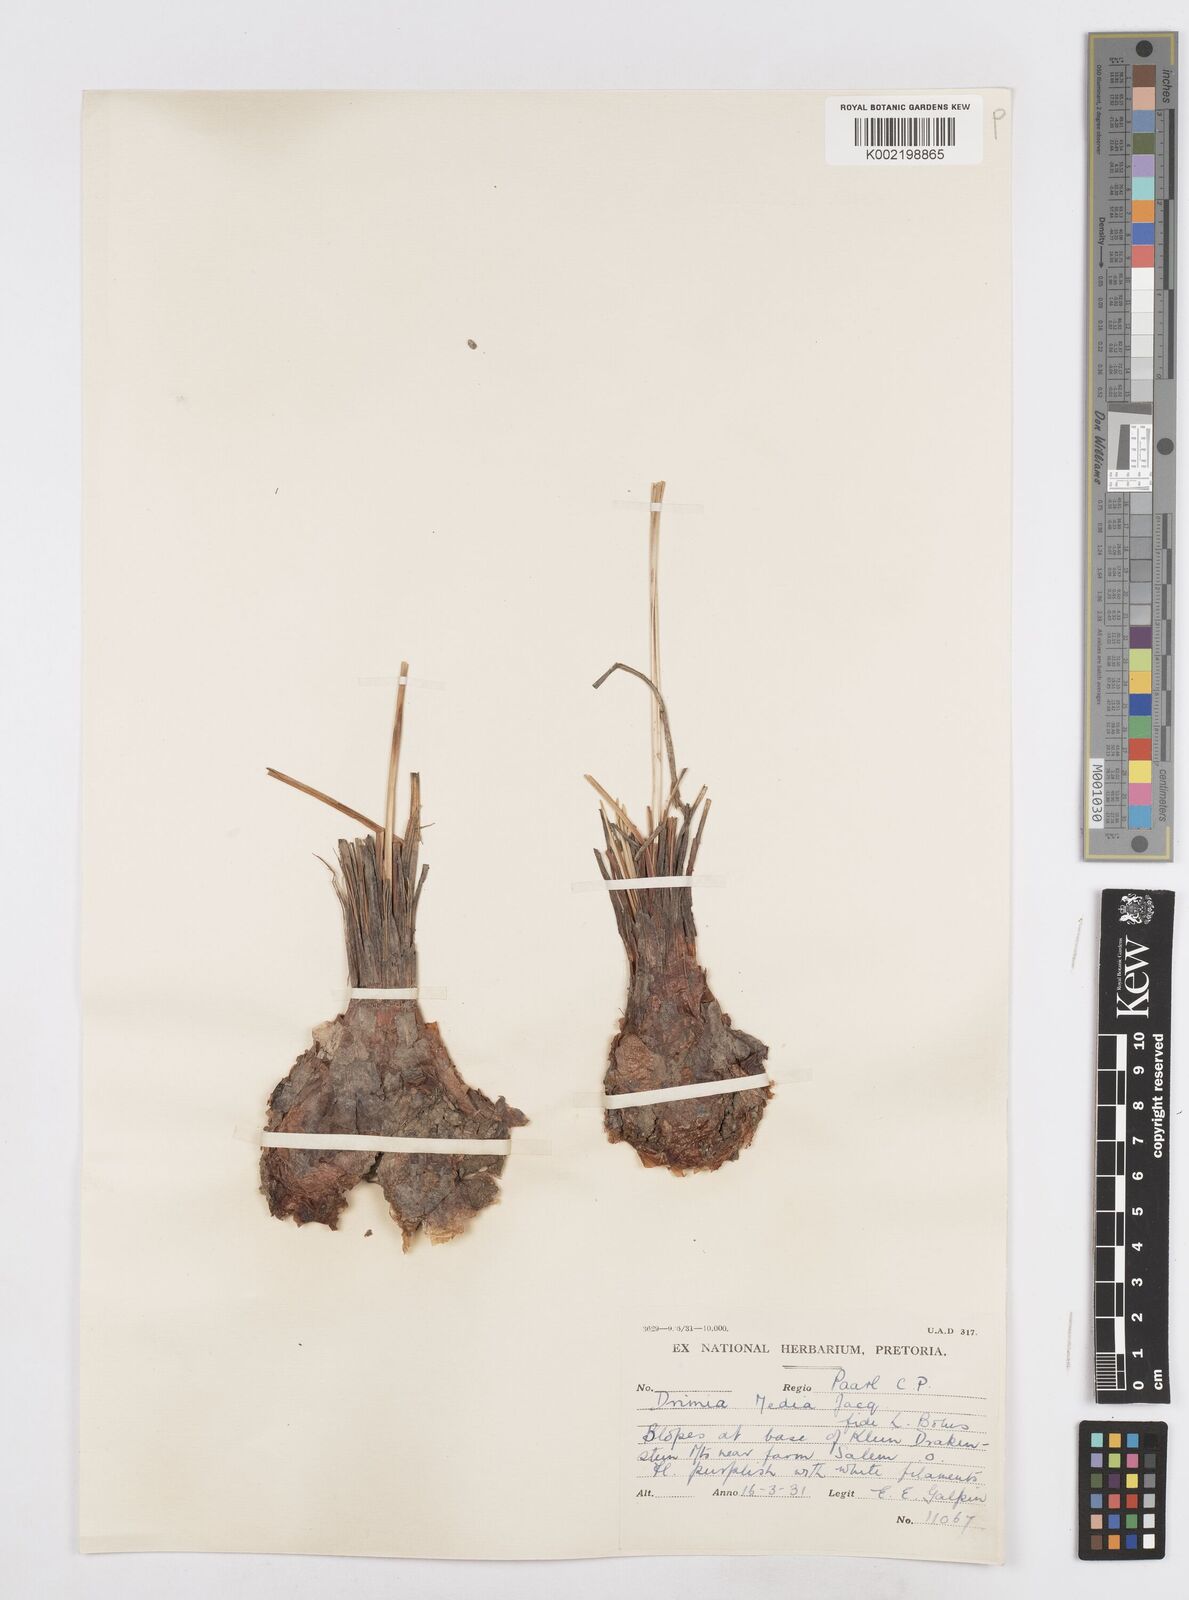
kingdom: Plantae
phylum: Tracheophyta
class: Liliopsida
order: Asparagales
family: Asparagaceae
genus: Drimia
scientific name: Drimia media
